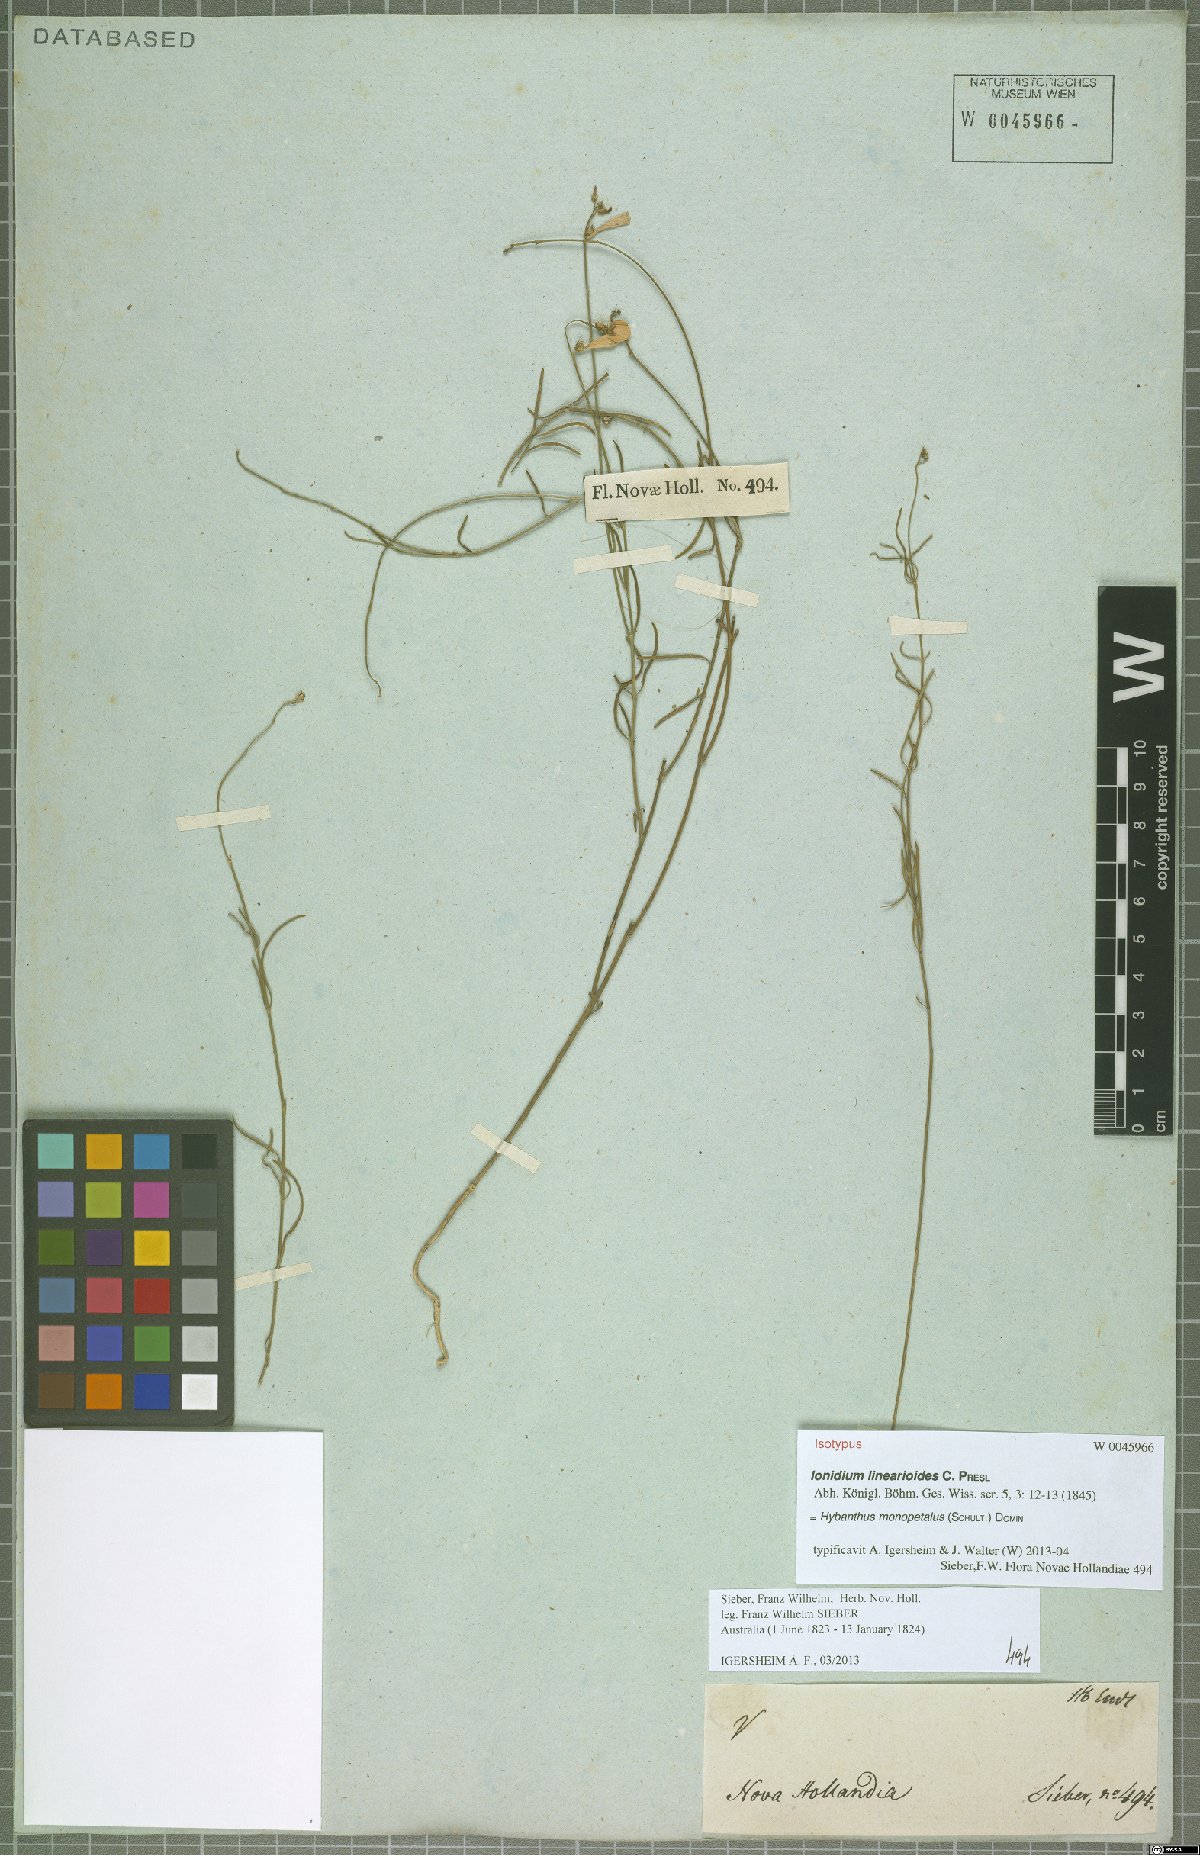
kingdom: Plantae
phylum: Tracheophyta
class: Magnoliopsida
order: Malpighiales
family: Violaceae
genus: Pigea
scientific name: Pigea monopetala
